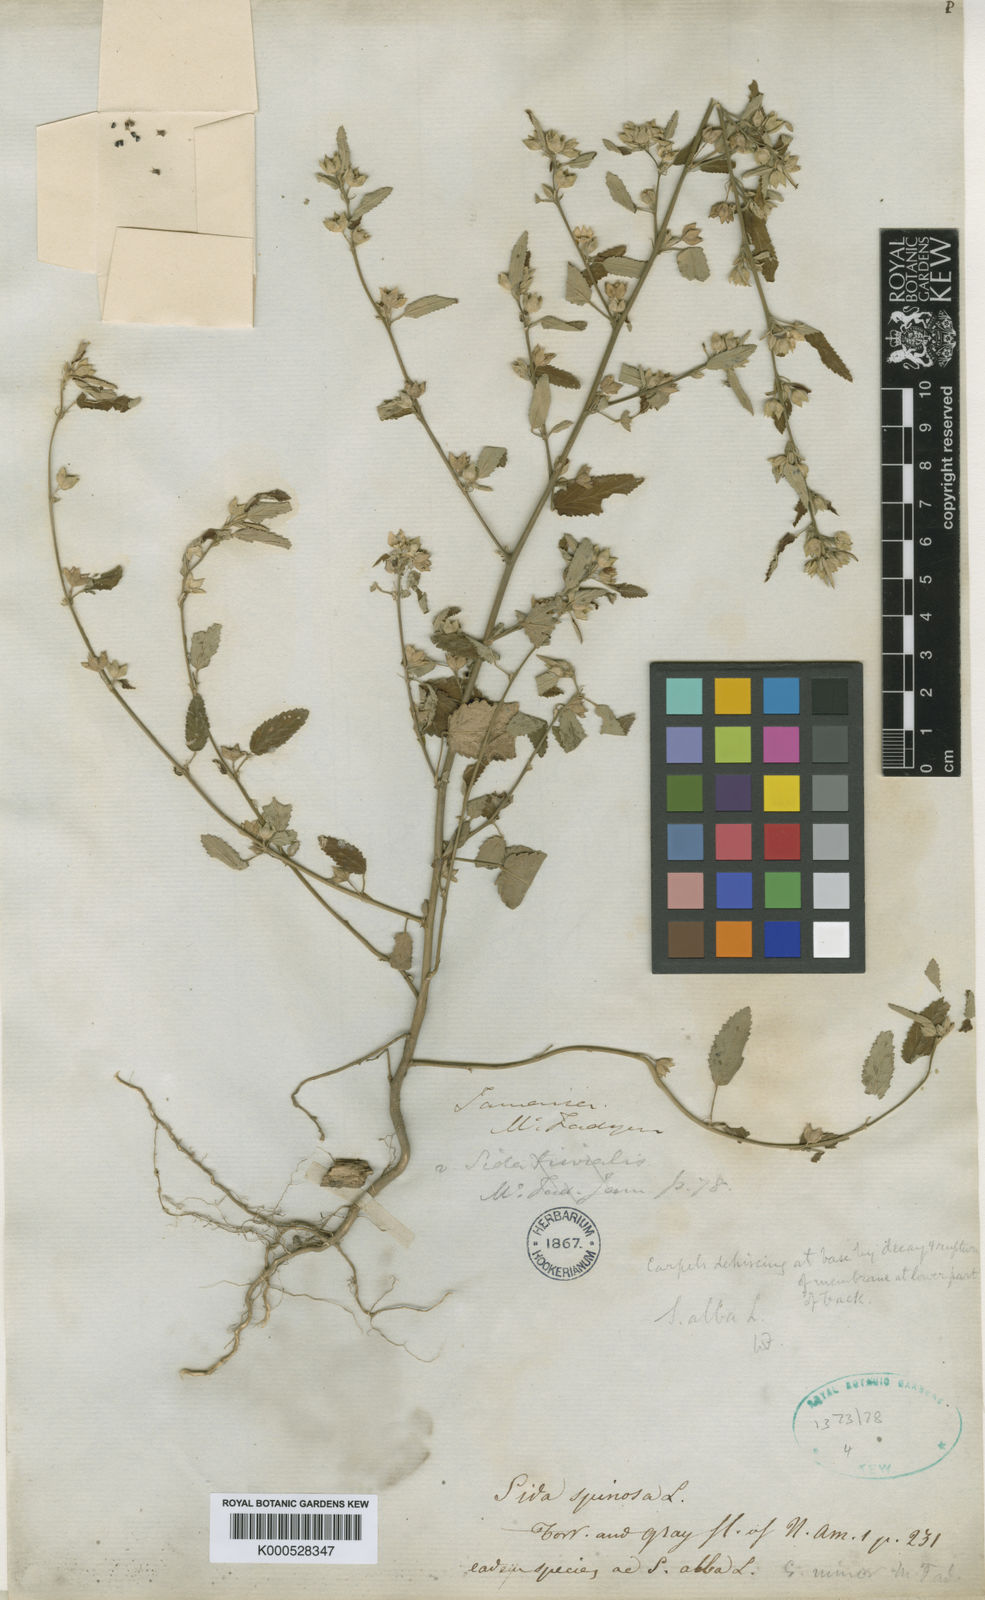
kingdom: Plantae
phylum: Tracheophyta
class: Magnoliopsida
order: Malvales
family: Malvaceae
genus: Sida
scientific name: Sida alba
